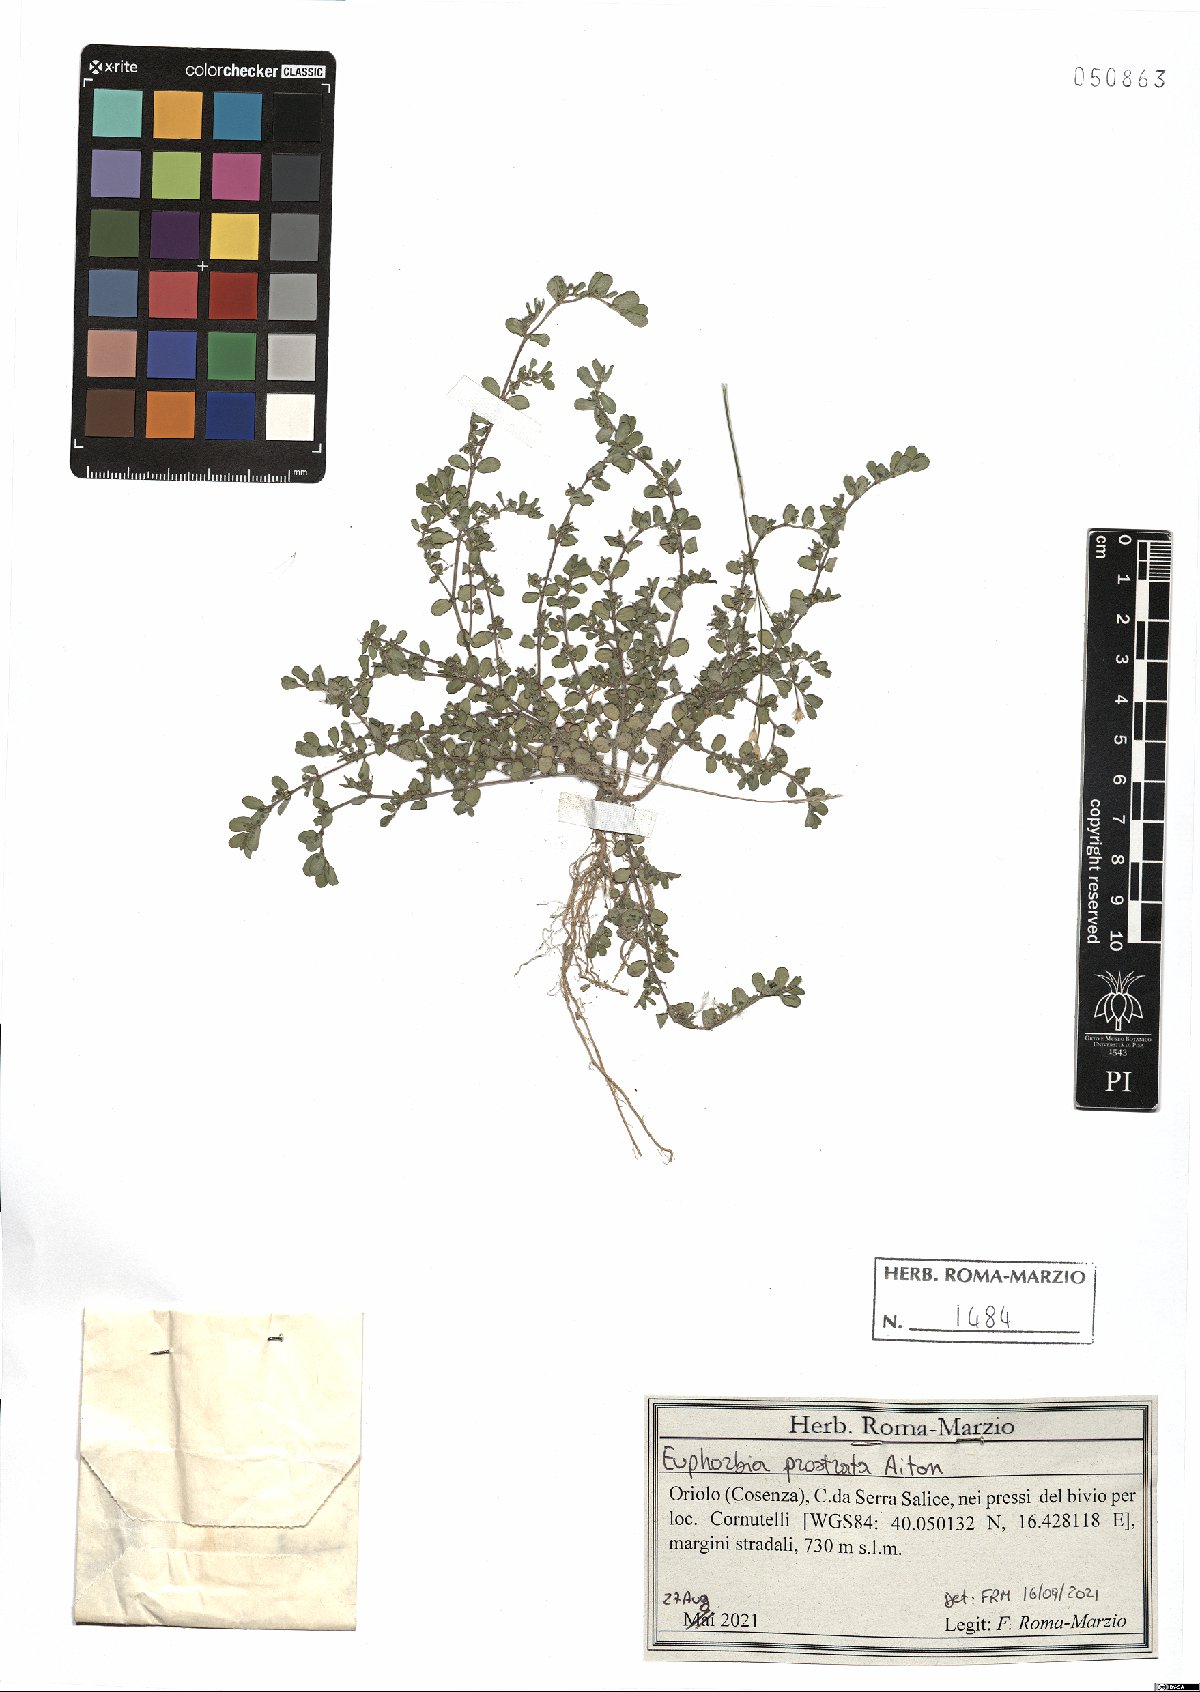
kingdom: Plantae
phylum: Tracheophyta
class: Magnoliopsida
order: Malpighiales
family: Euphorbiaceae
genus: Euphorbia
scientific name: Euphorbia prostrata
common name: Prostrate sandmat
